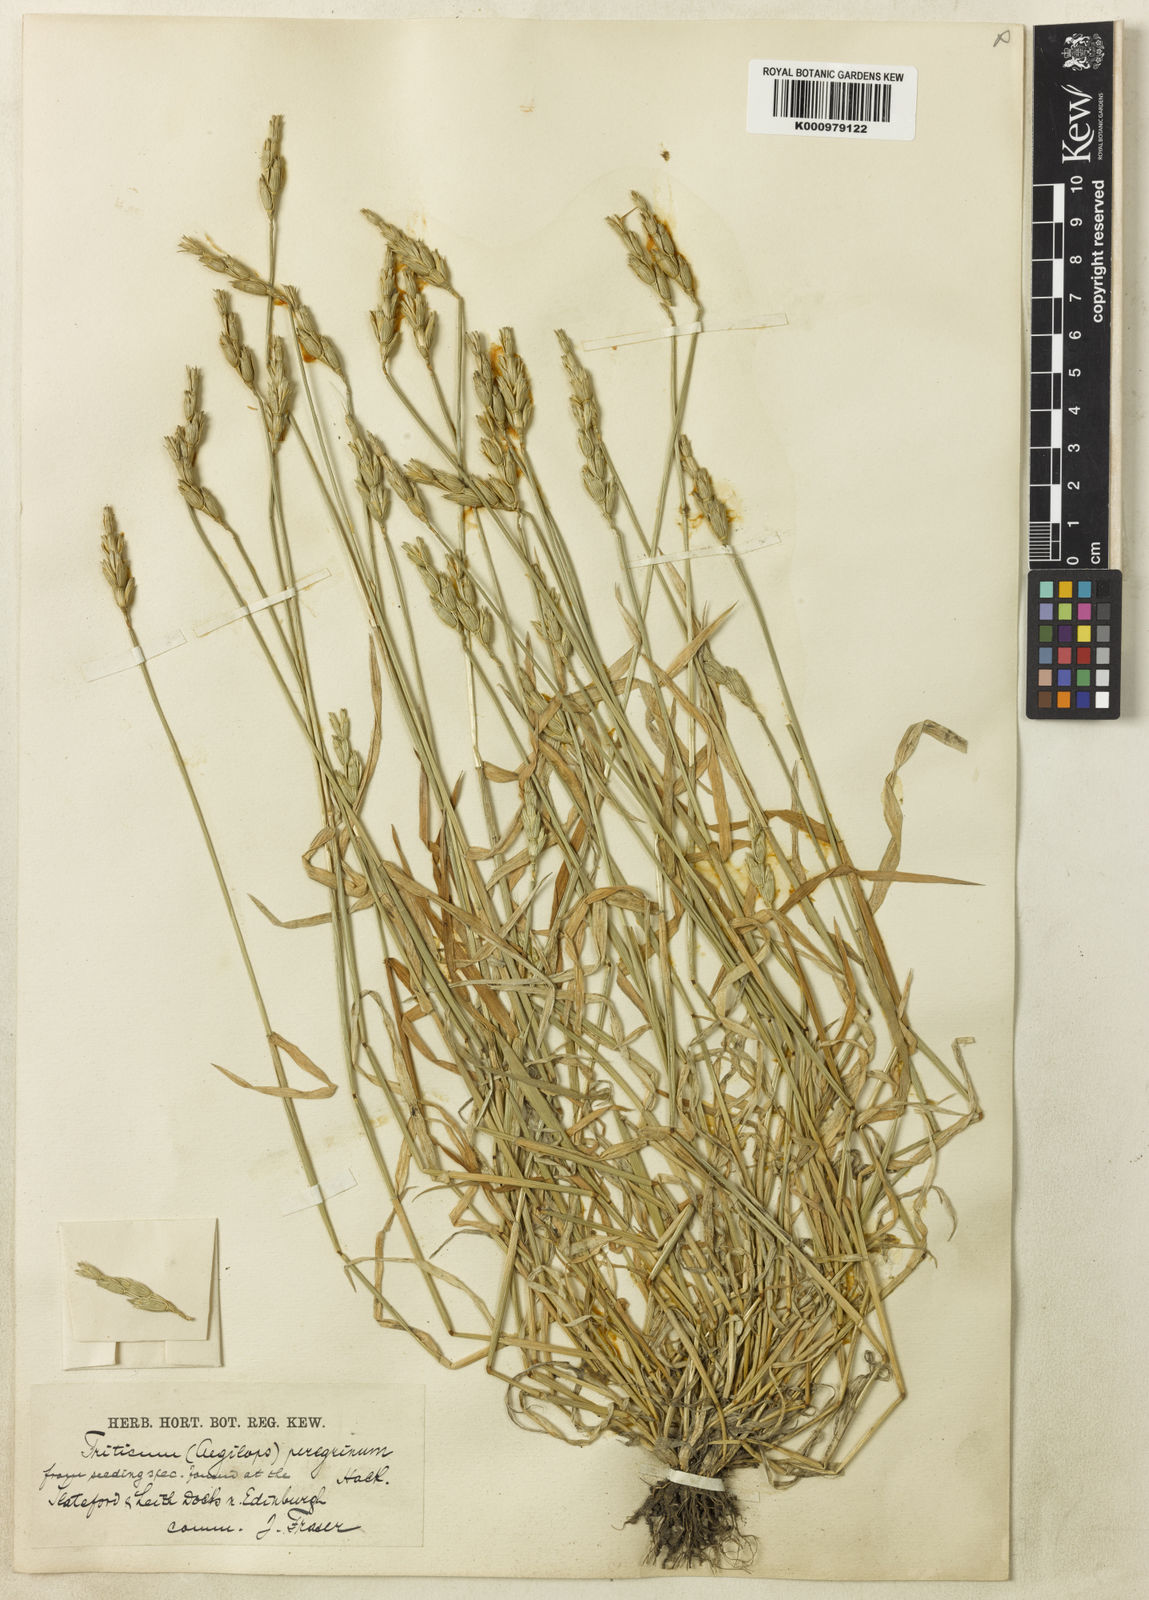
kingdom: Plantae
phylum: Tracheophyta
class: Liliopsida
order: Poales
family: Poaceae
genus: Aegilops
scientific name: Aegilops uniaristata
